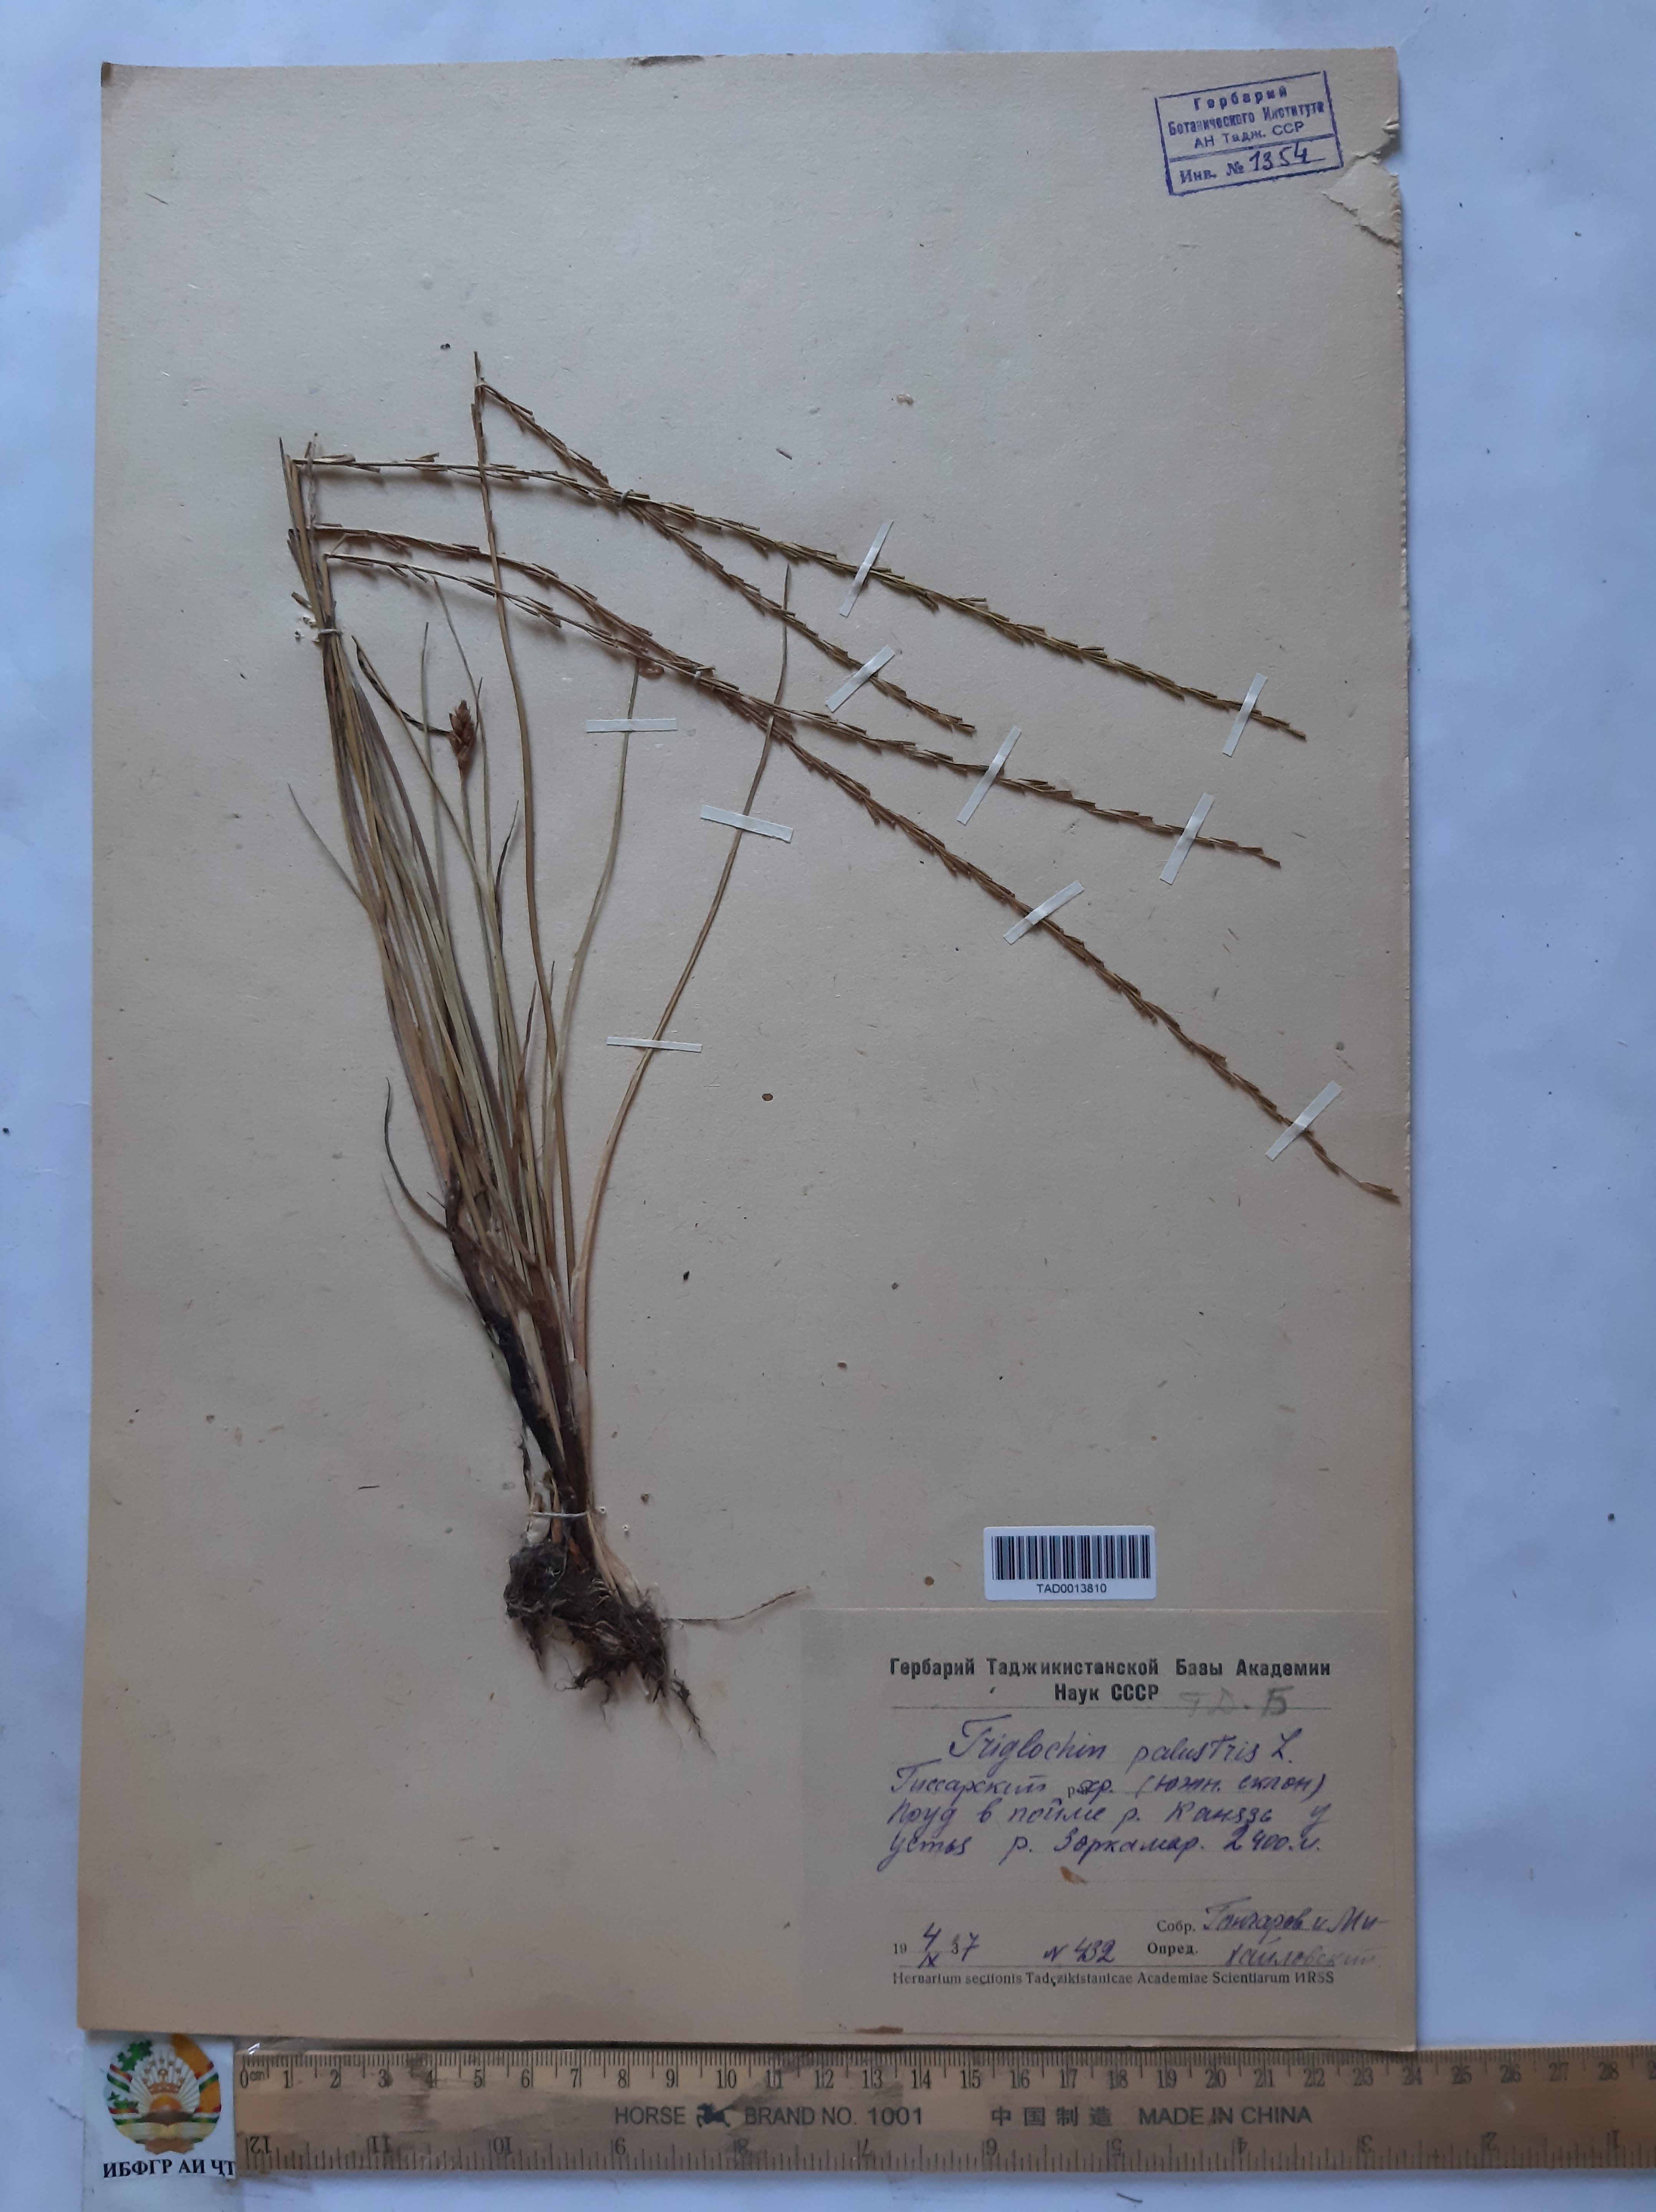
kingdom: Plantae
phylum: Tracheophyta
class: Liliopsida
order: Alismatales
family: Juncaginaceae
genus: Triglochin
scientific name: Triglochin palustris
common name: Marsh arrowgrass
